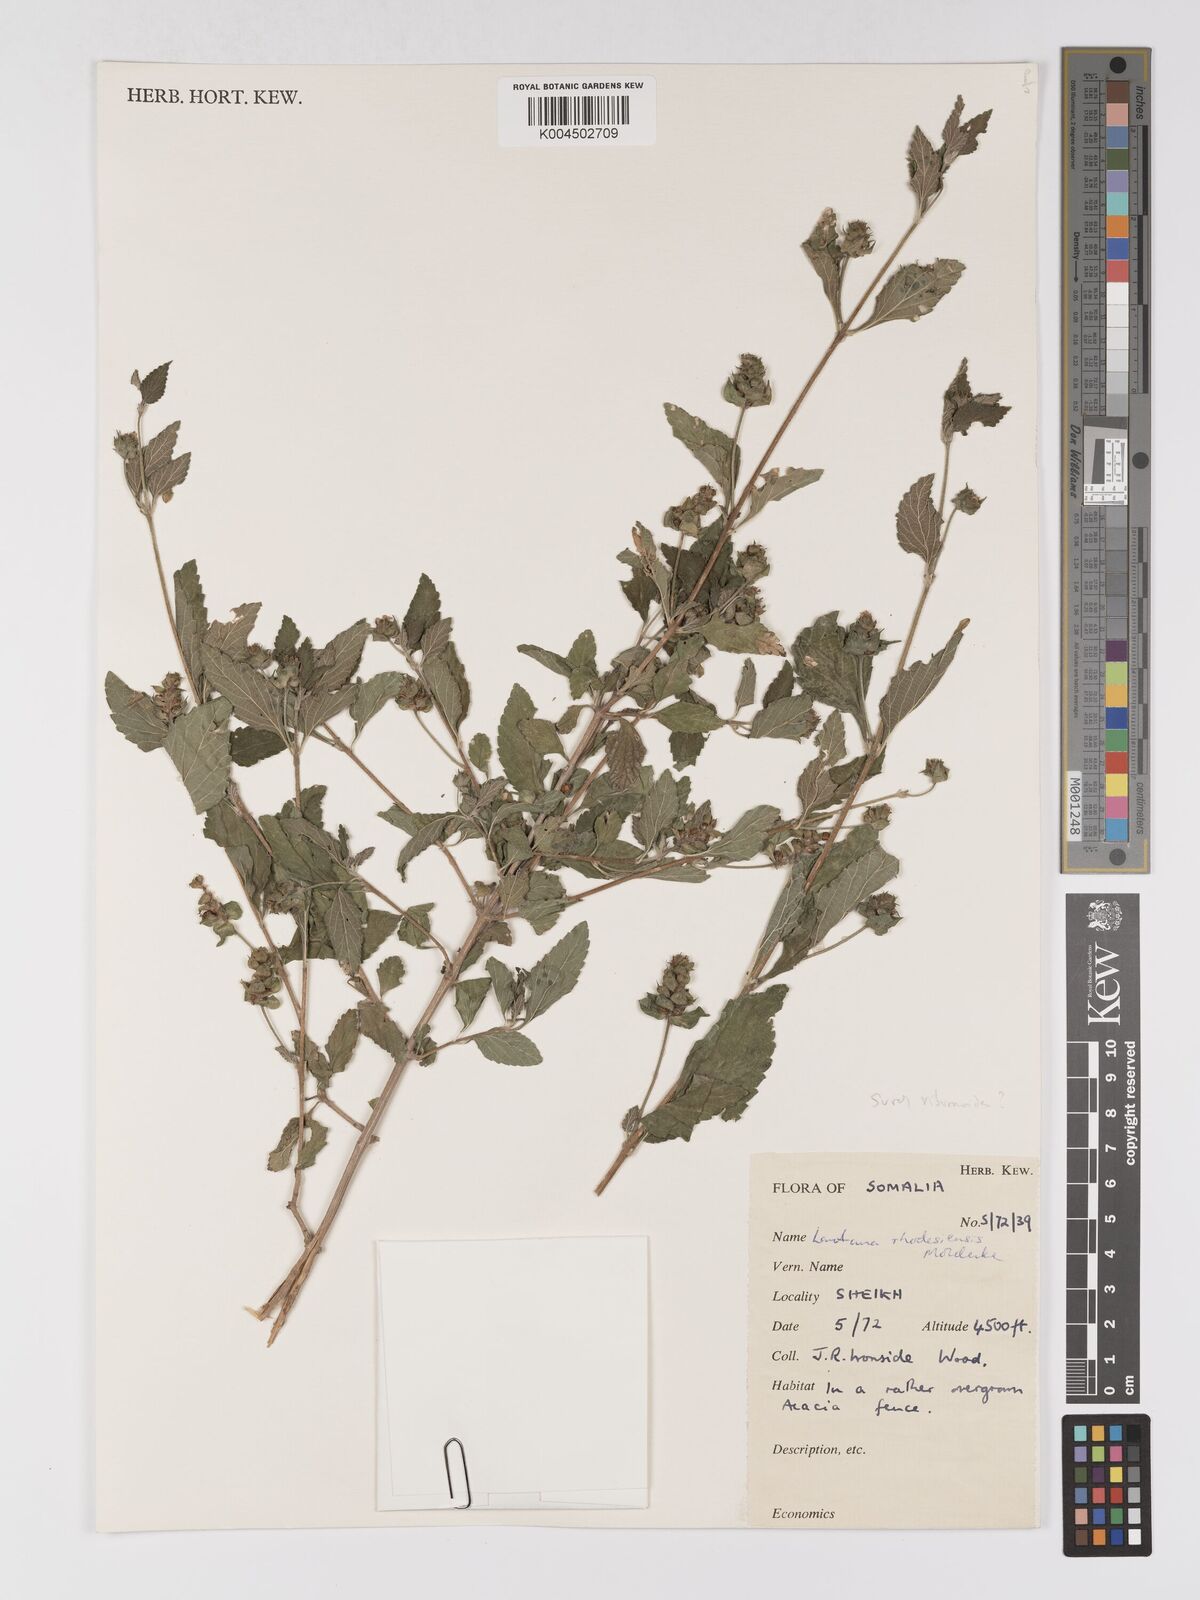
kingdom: Plantae
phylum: Tracheophyta
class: Magnoliopsida
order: Lamiales
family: Verbenaceae
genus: Lantana
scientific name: Lantana ukambensis
